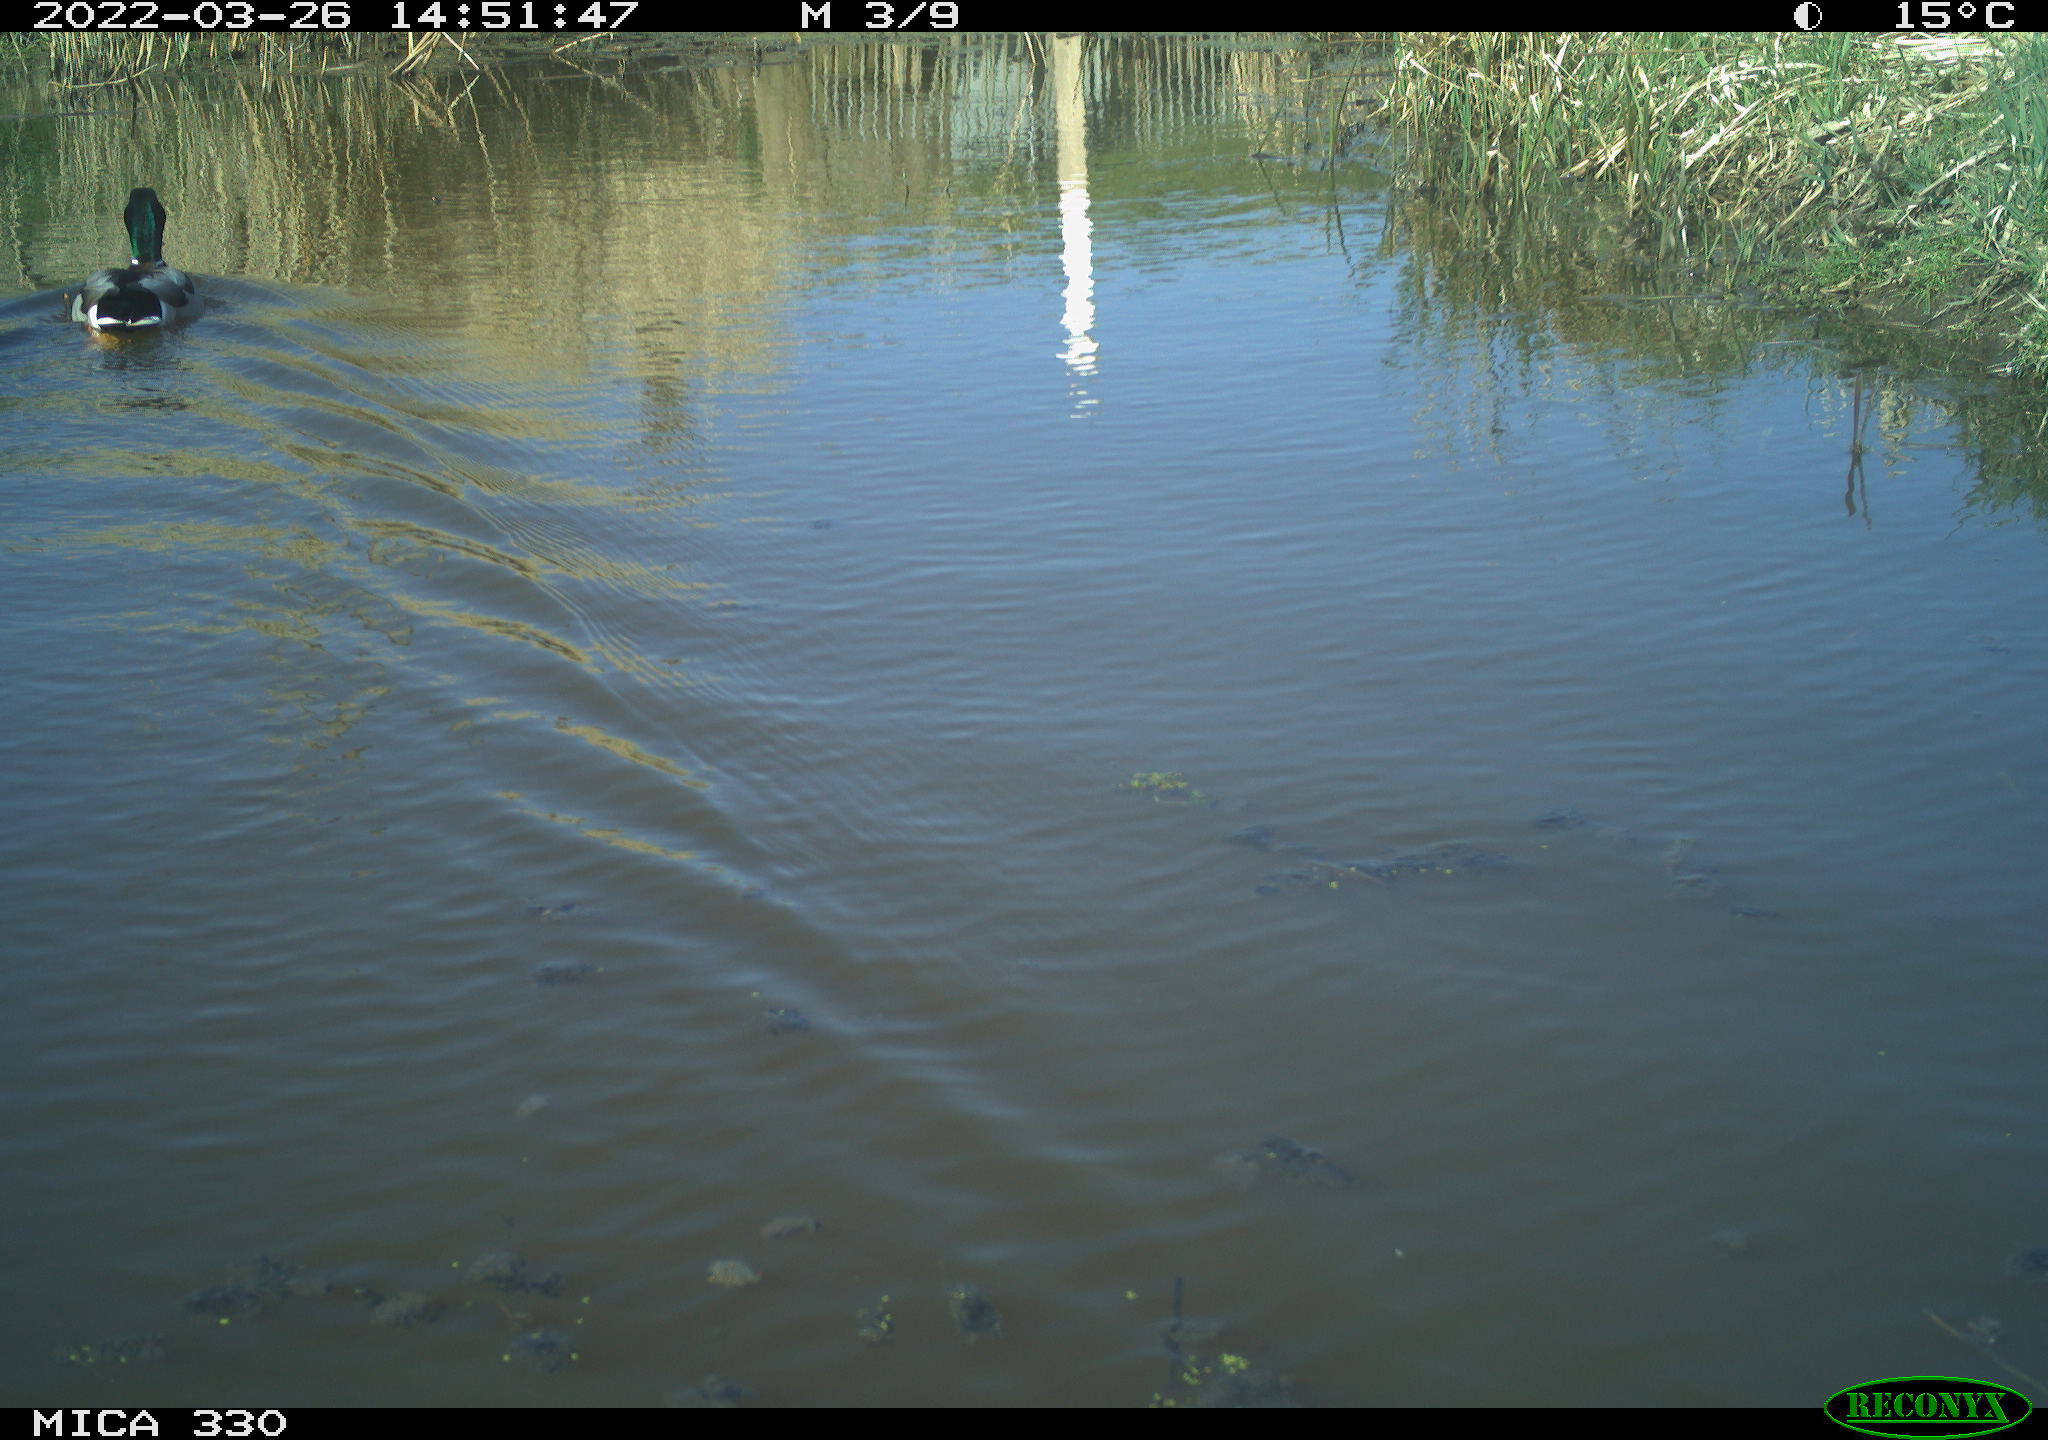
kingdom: Animalia
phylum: Chordata
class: Aves
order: Anseriformes
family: Anatidae
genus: Anas
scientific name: Anas platyrhynchos
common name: Mallard
